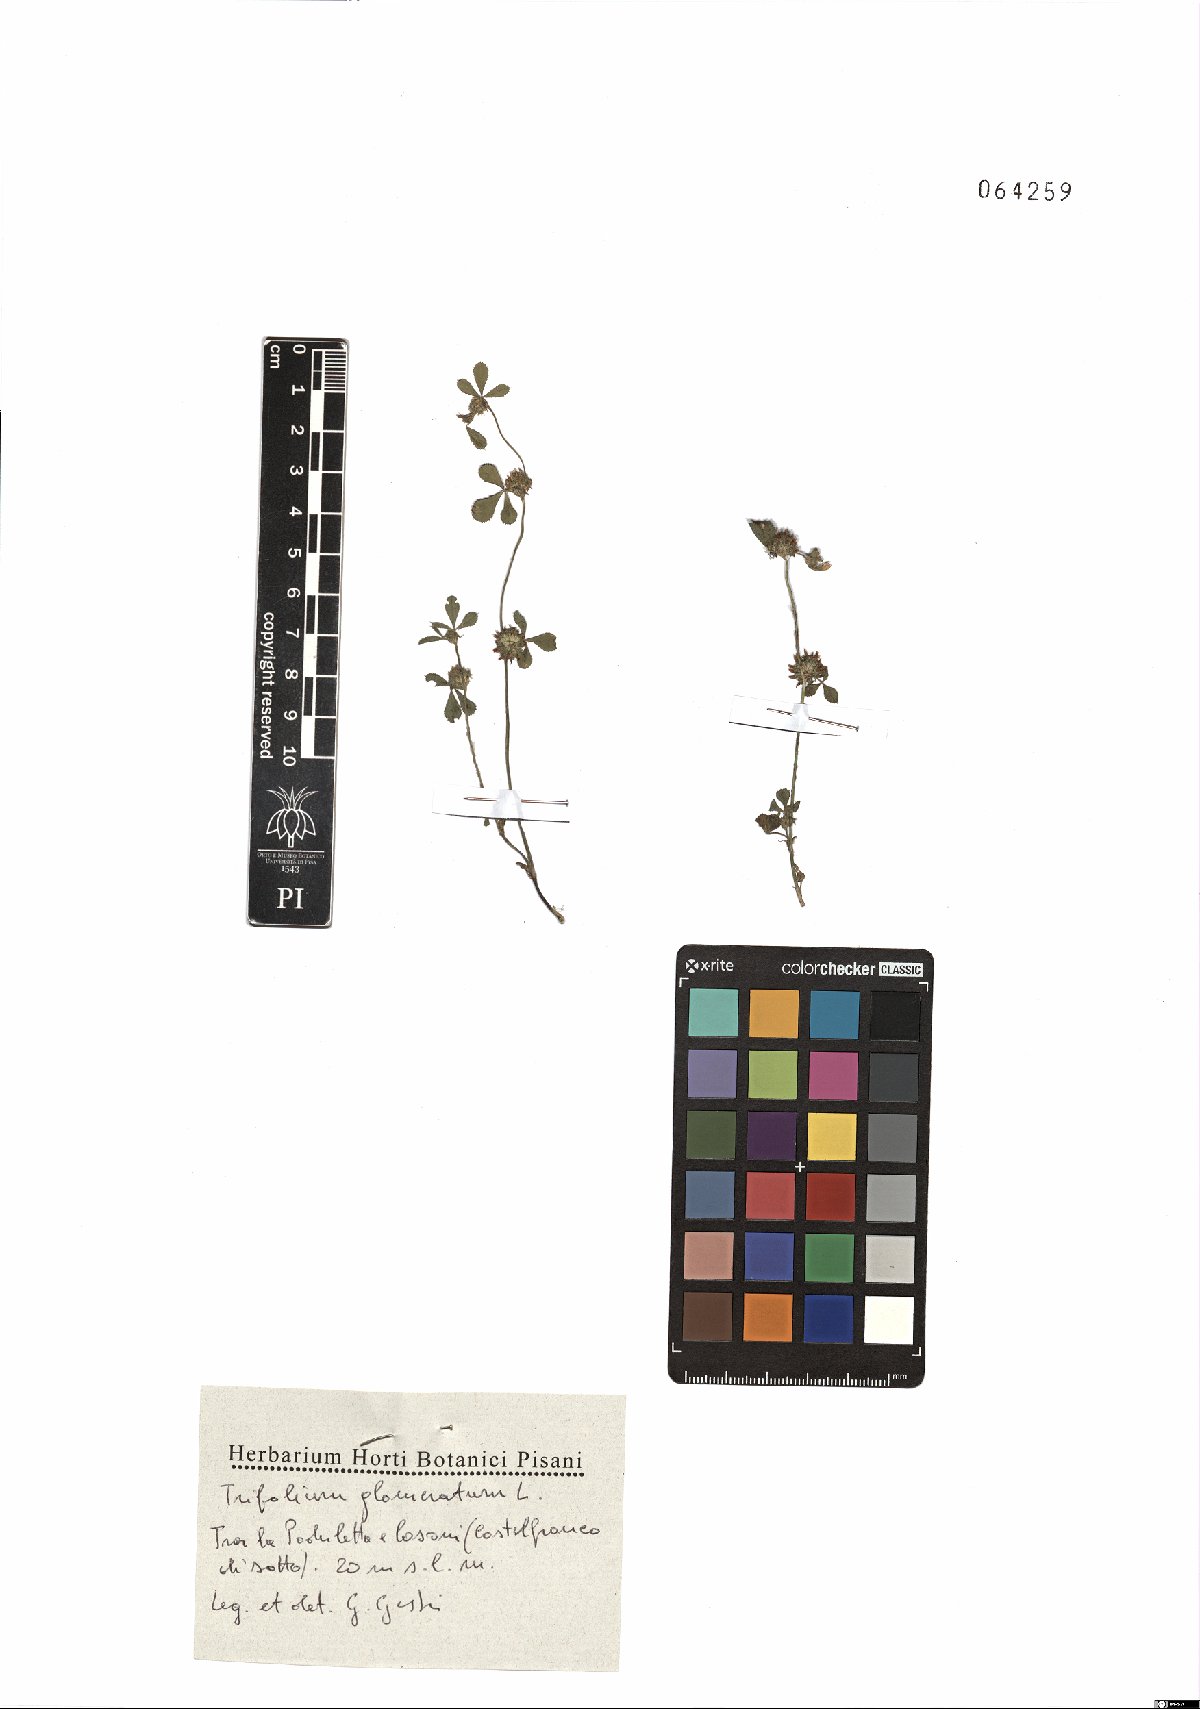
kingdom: Plantae
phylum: Tracheophyta
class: Magnoliopsida
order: Fabales
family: Fabaceae
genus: Trifolium
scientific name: Trifolium glomeratum
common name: Clustered clover
